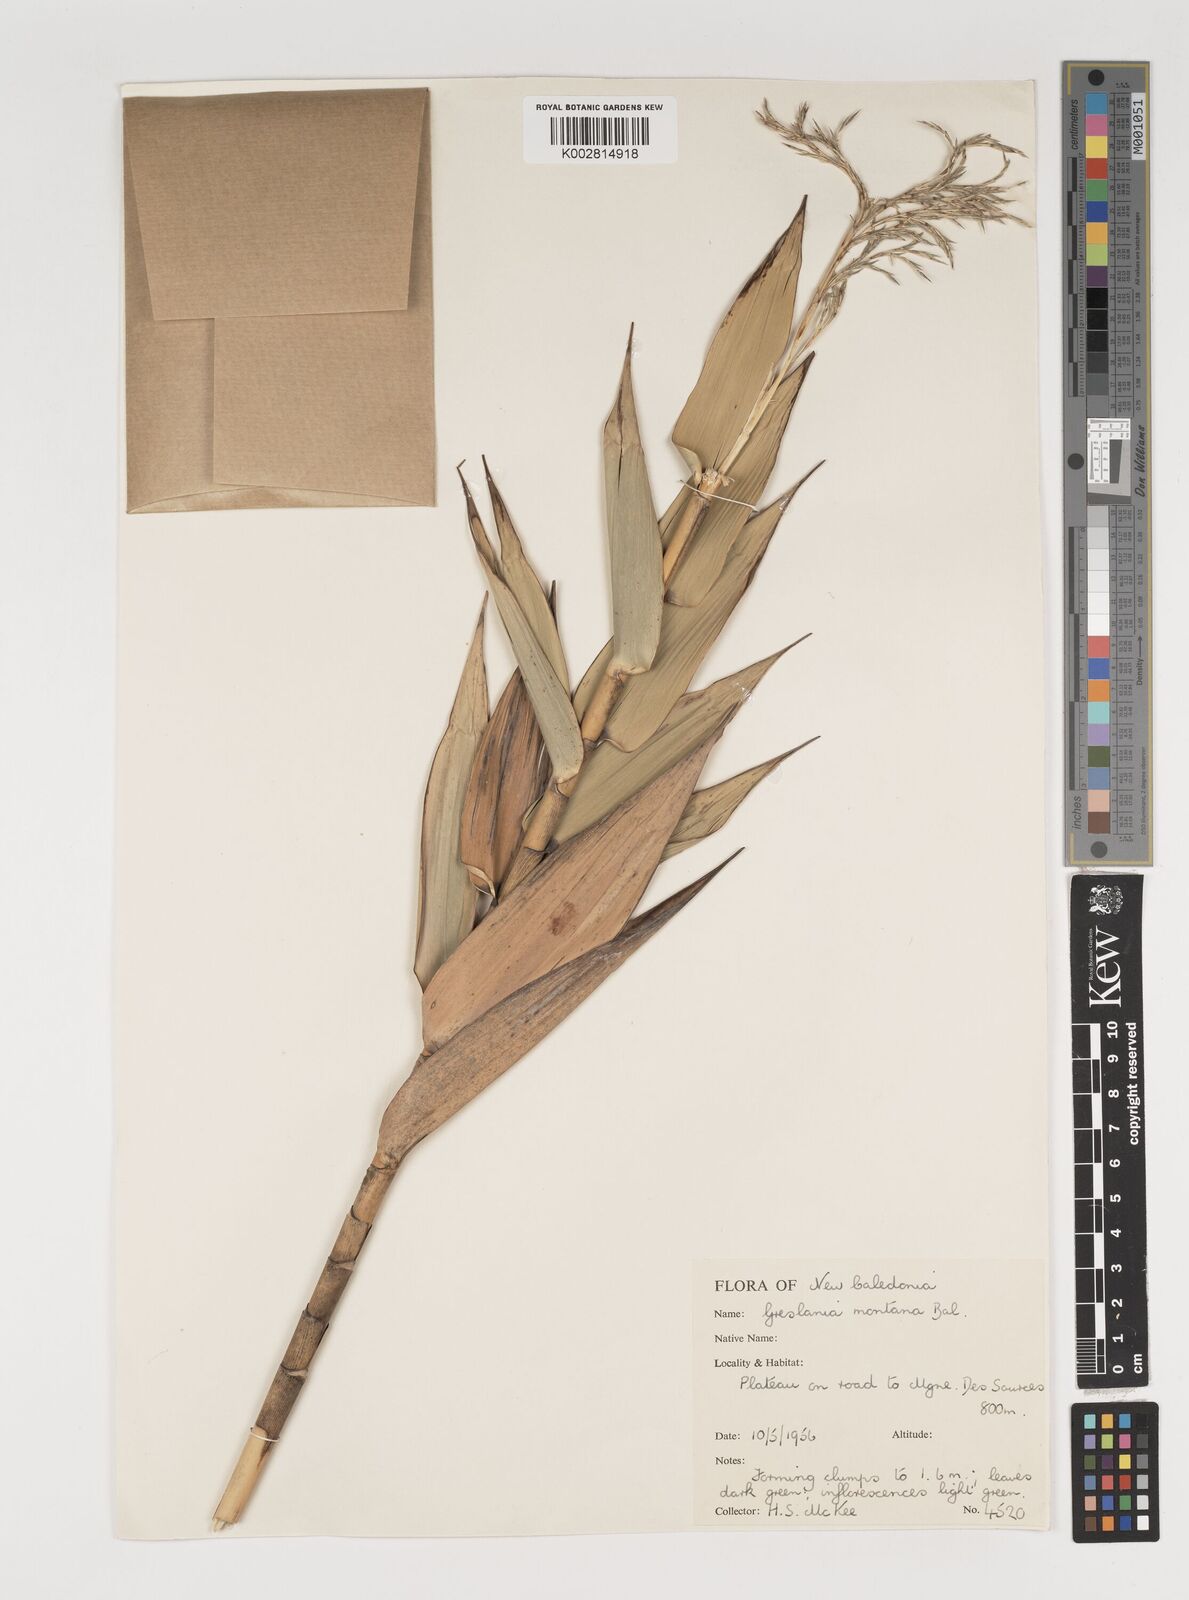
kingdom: Plantae
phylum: Tracheophyta
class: Liliopsida
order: Poales
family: Poaceae
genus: Greslania
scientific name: Greslania circinata
